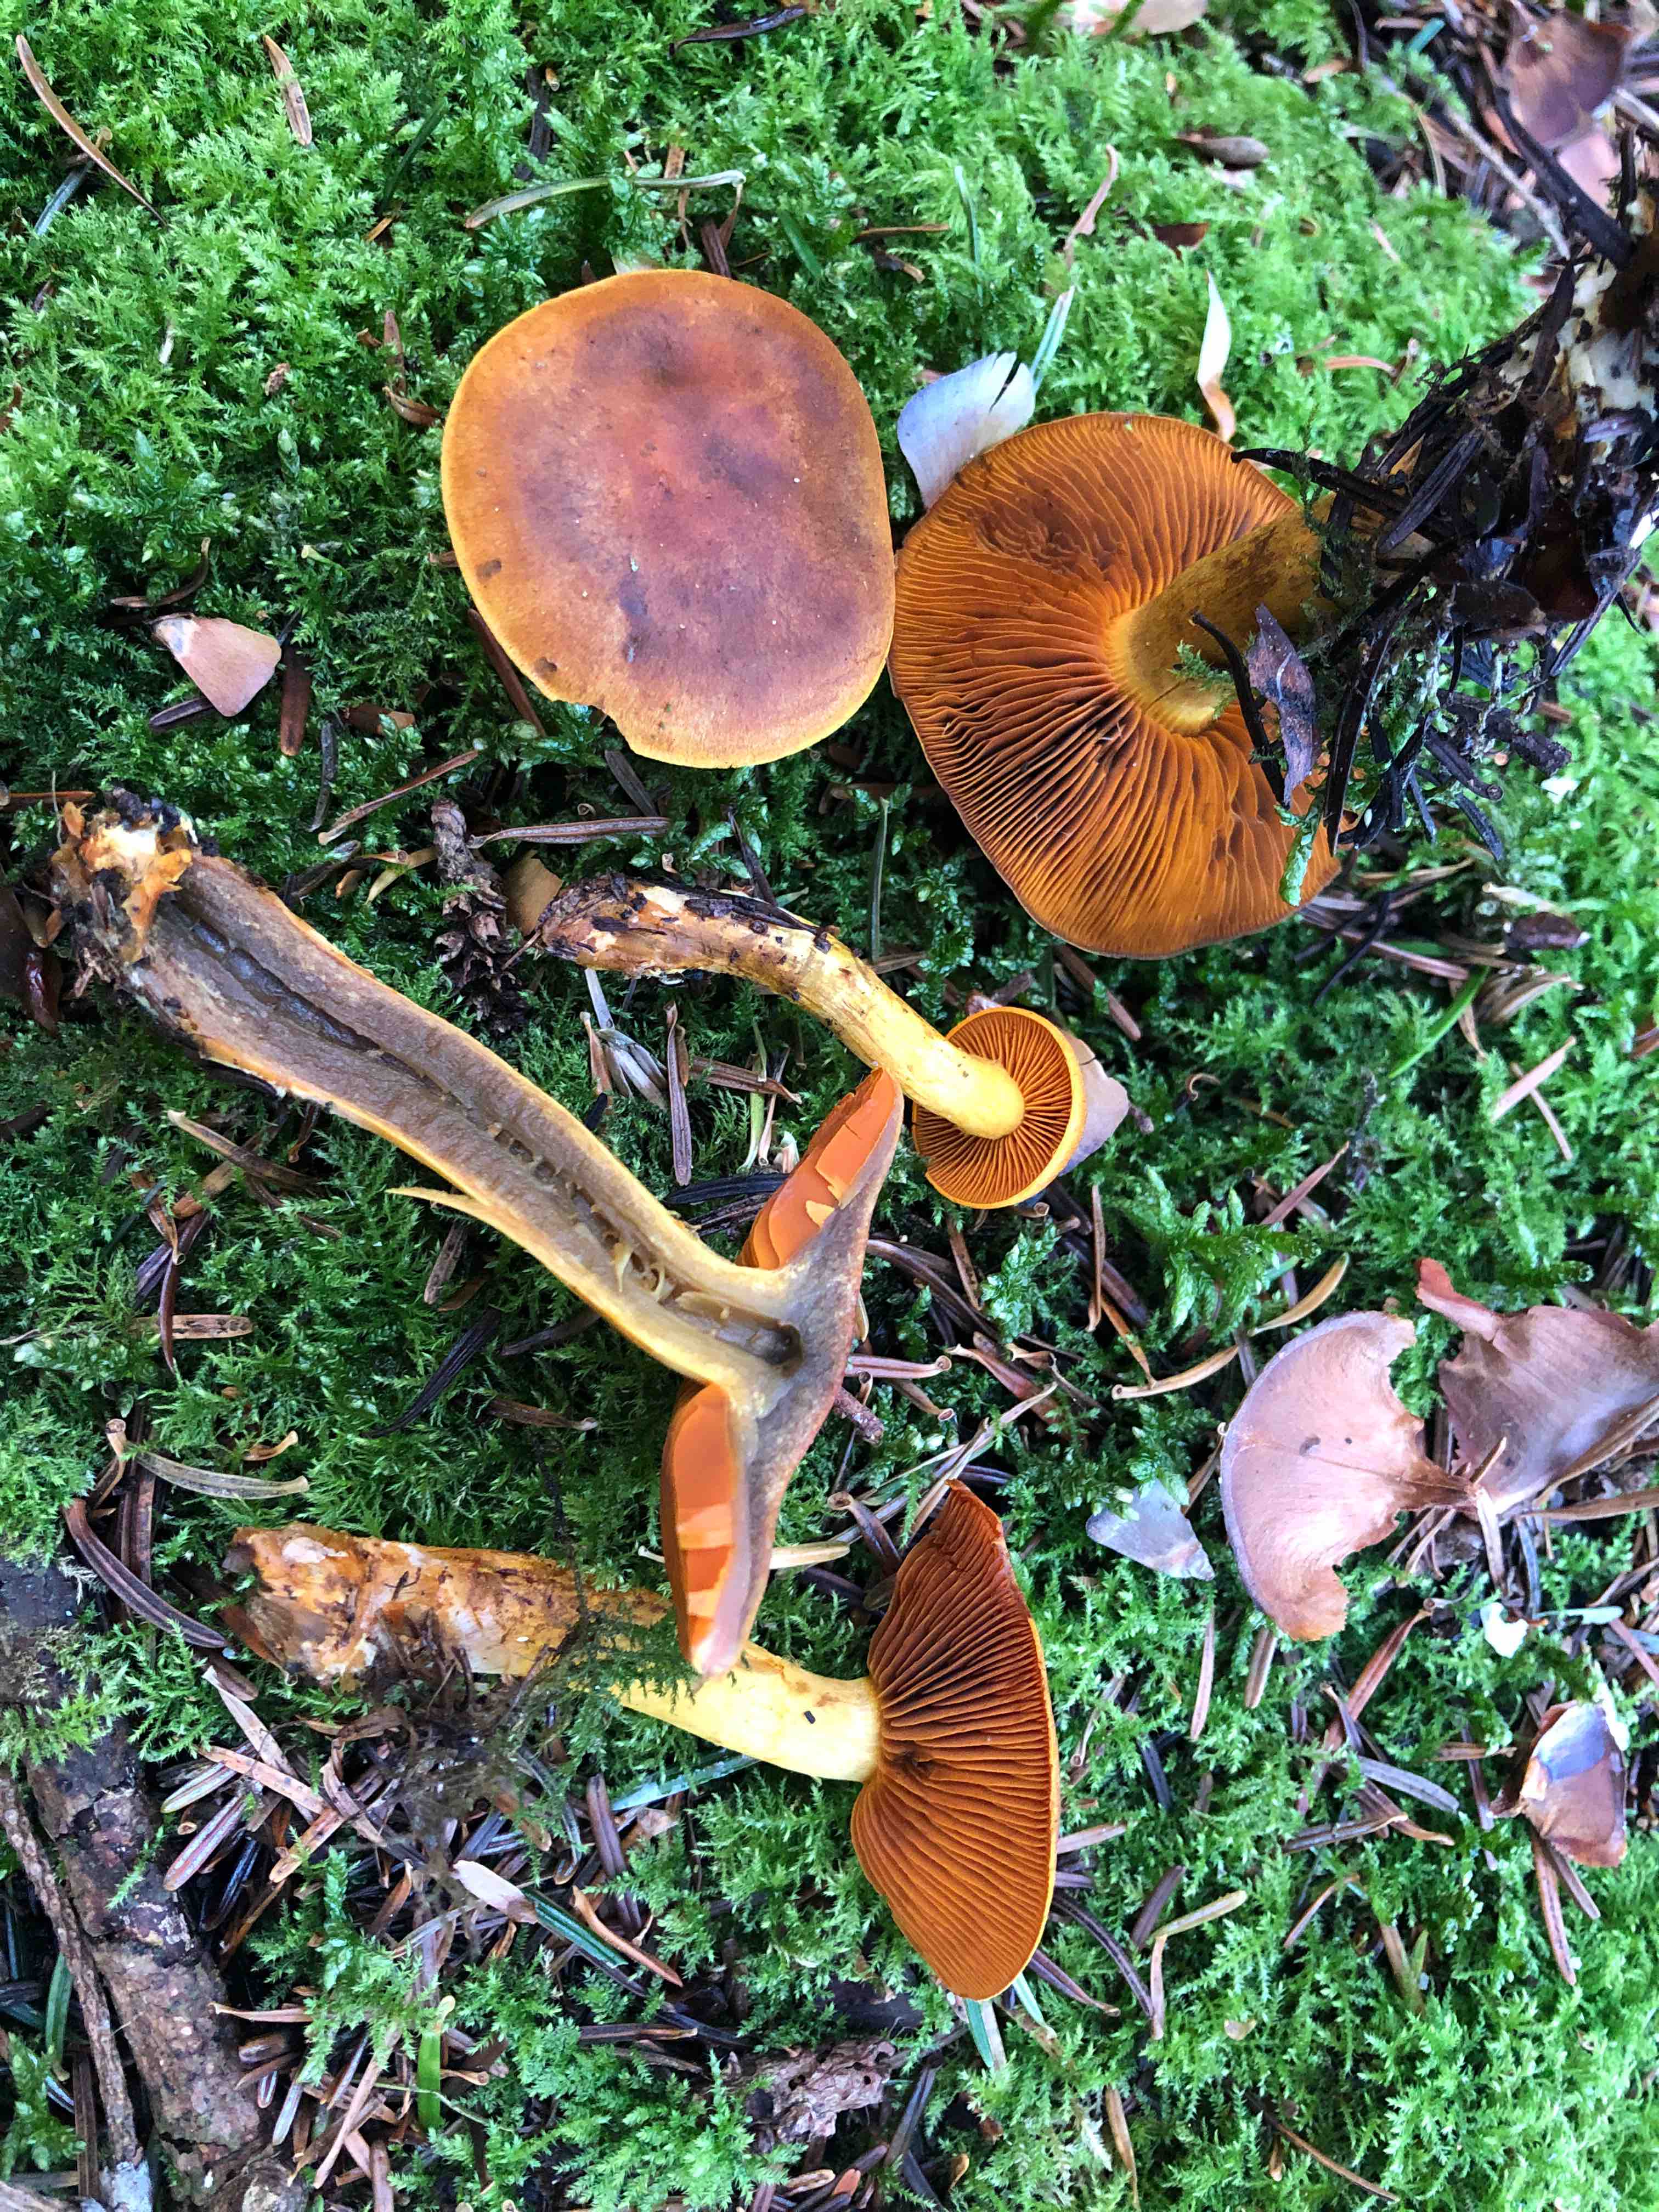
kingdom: Fungi
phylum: Basidiomycota
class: Agaricomycetes
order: Agaricales
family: Cortinariaceae
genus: Cortinarius
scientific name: Cortinarius malicorius
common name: grønkødet slørhat
